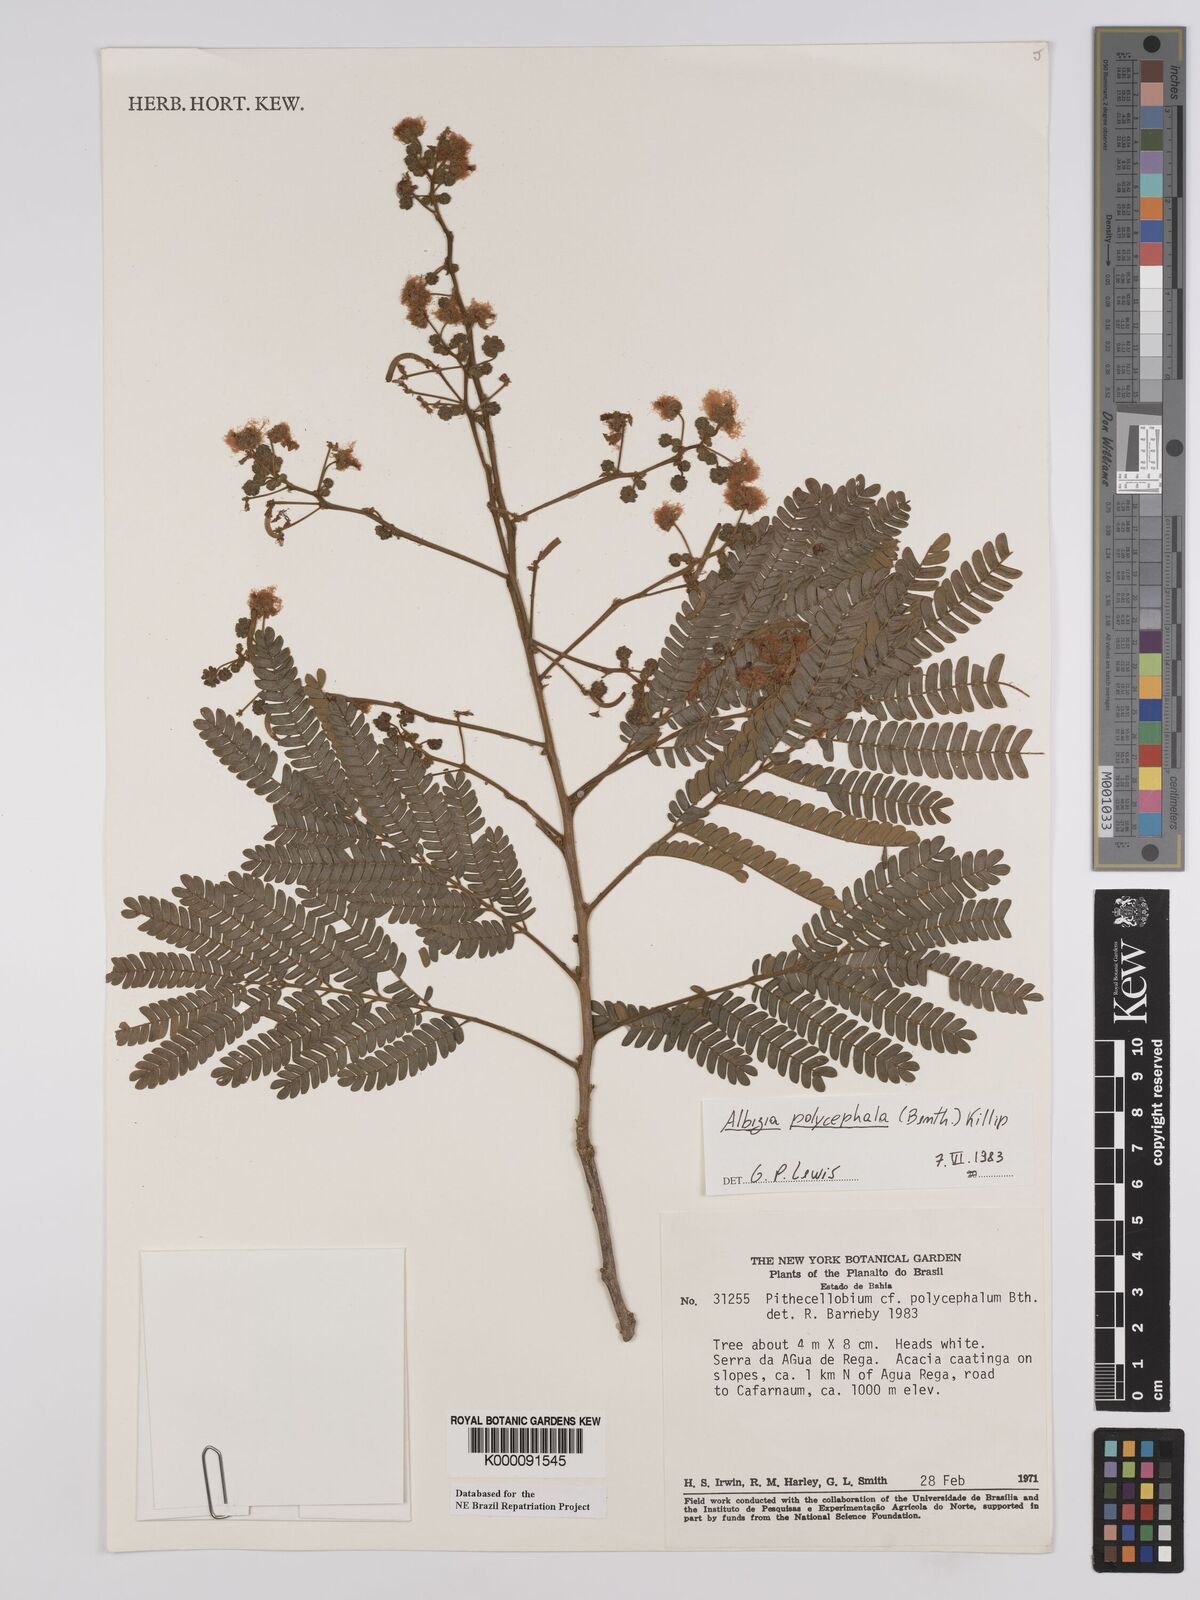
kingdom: Plantae
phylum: Tracheophyta
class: Magnoliopsida
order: Fabales
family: Fabaceae
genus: Albizia
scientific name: Albizia polycephala
